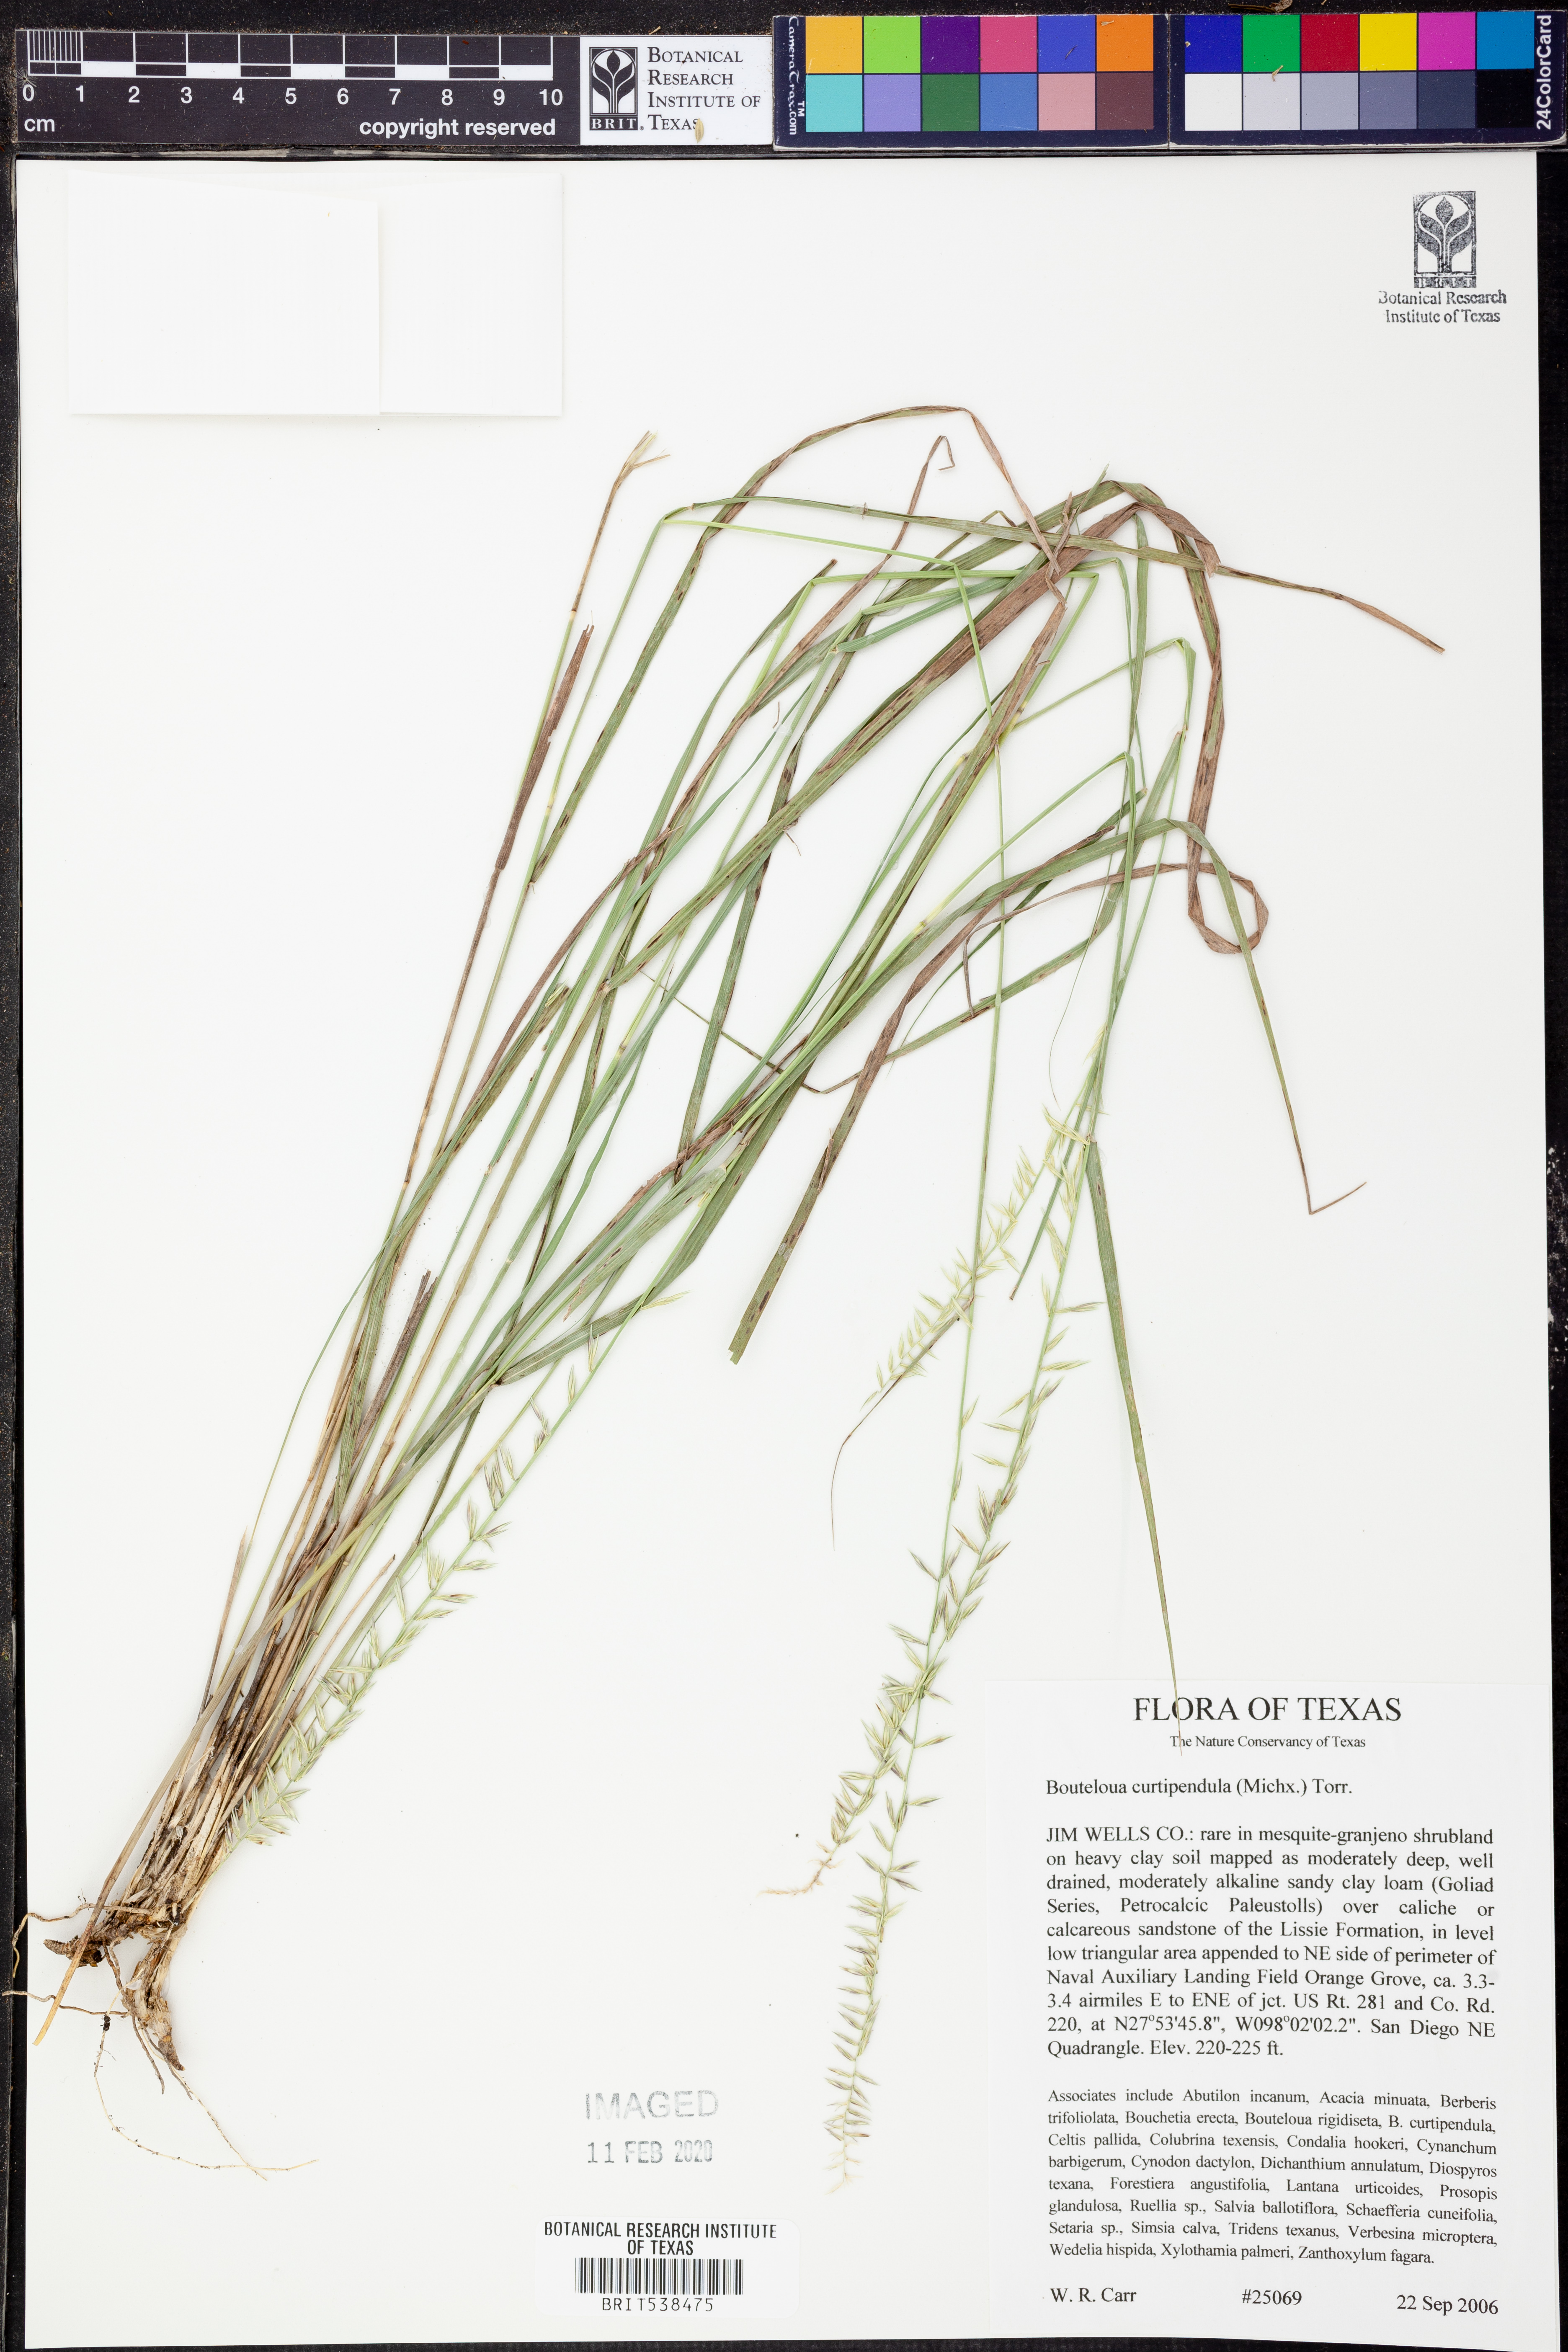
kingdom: Plantae
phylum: Tracheophyta
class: Liliopsida
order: Poales
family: Poaceae
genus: Bouteloua
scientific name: Bouteloua curtipendula
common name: Side-oats grama
